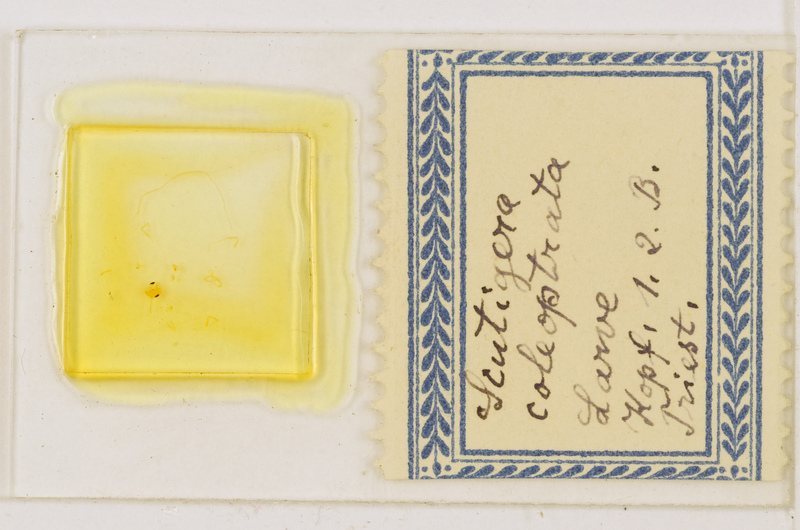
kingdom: Animalia
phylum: Arthropoda
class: Chilopoda
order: Scutigeromorpha
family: Scutigeridae
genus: Scutigera
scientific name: Scutigera coleoptrata
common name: House centipede
